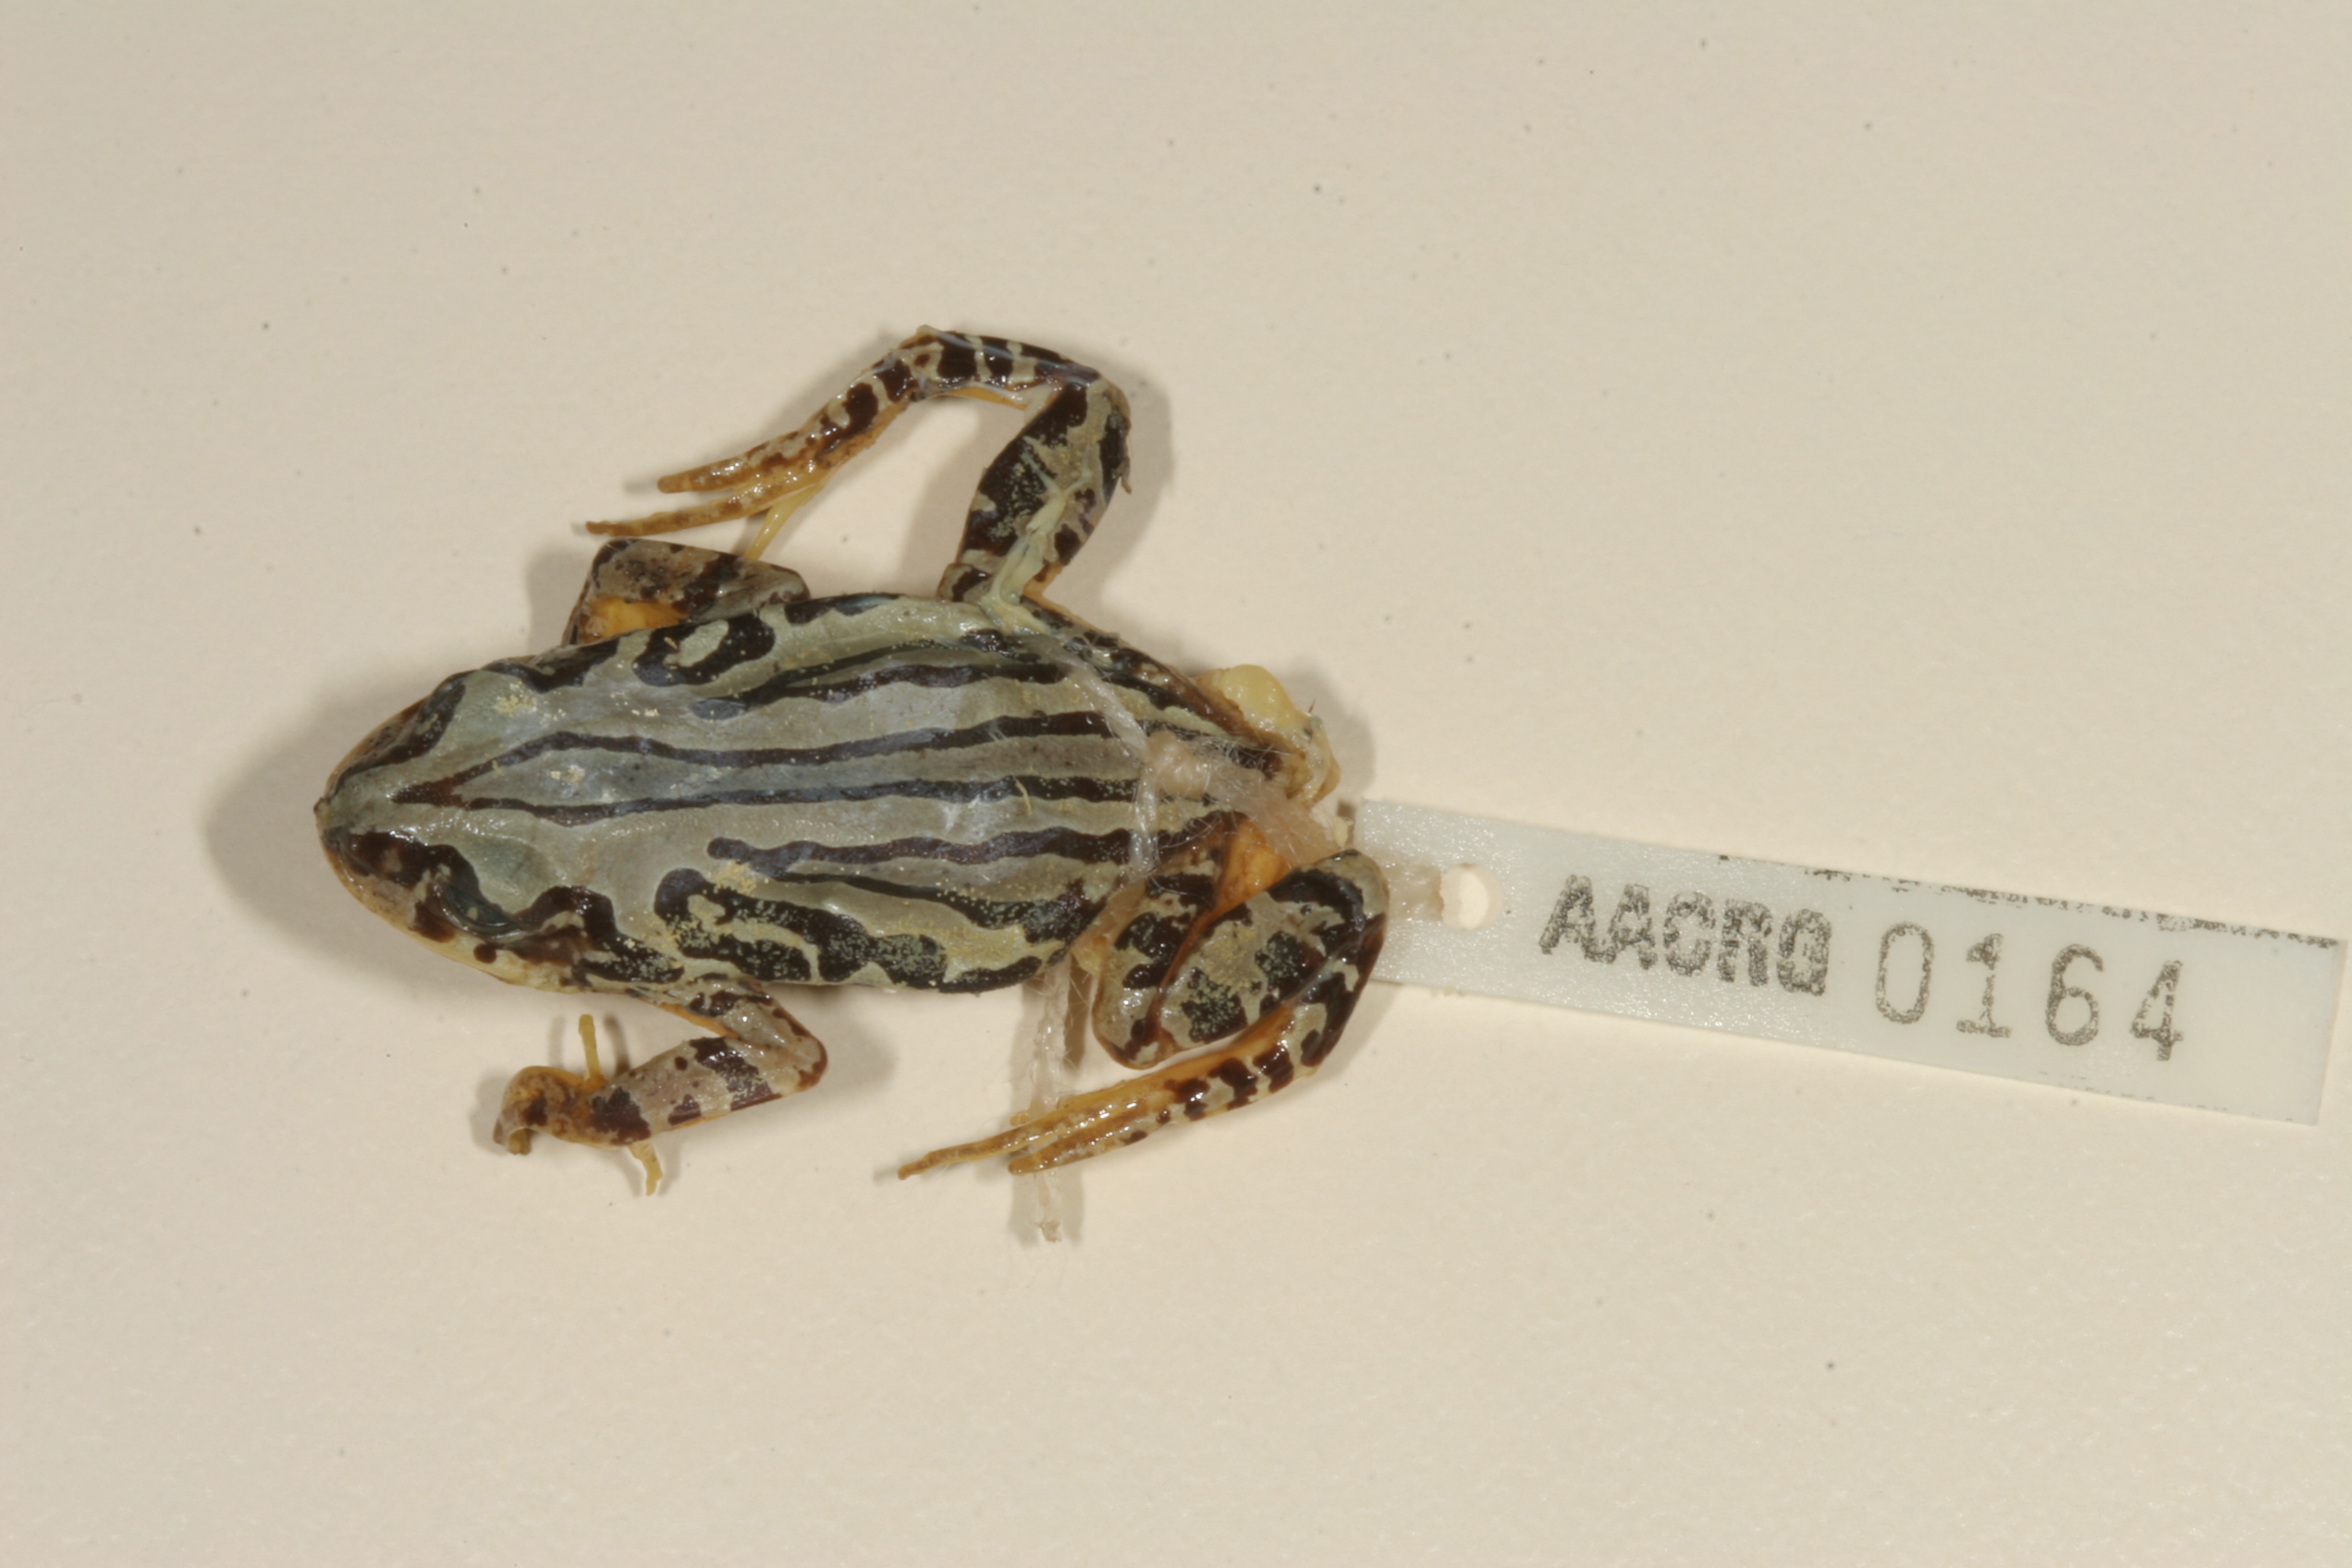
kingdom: Animalia
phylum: Chordata
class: Amphibia
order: Anura
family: Hyperoliidae
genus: Semnodactylus
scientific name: Semnodactylus wealii
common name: Weal's frog
